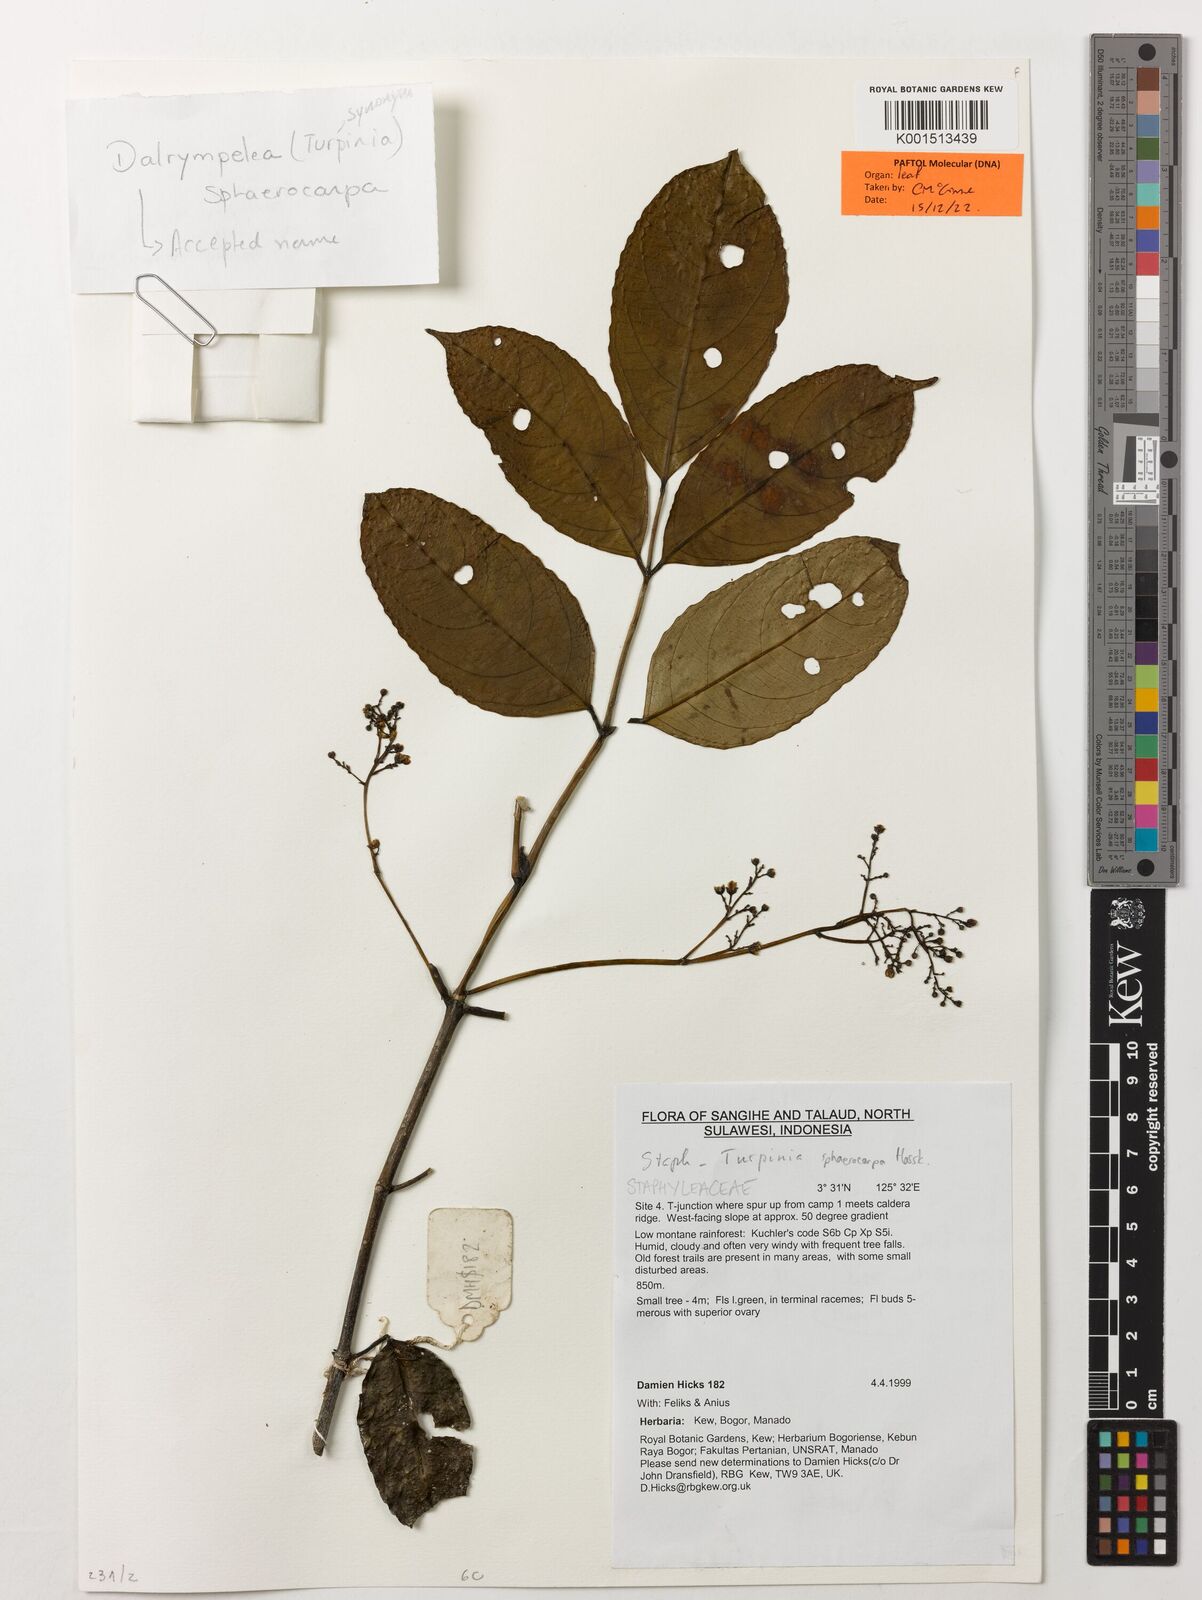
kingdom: Plantae
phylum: Tracheophyta
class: Magnoliopsida
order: Crossosomatales
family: Staphyleaceae
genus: Dalrympelea
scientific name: Dalrympelea sphaerocarpa
